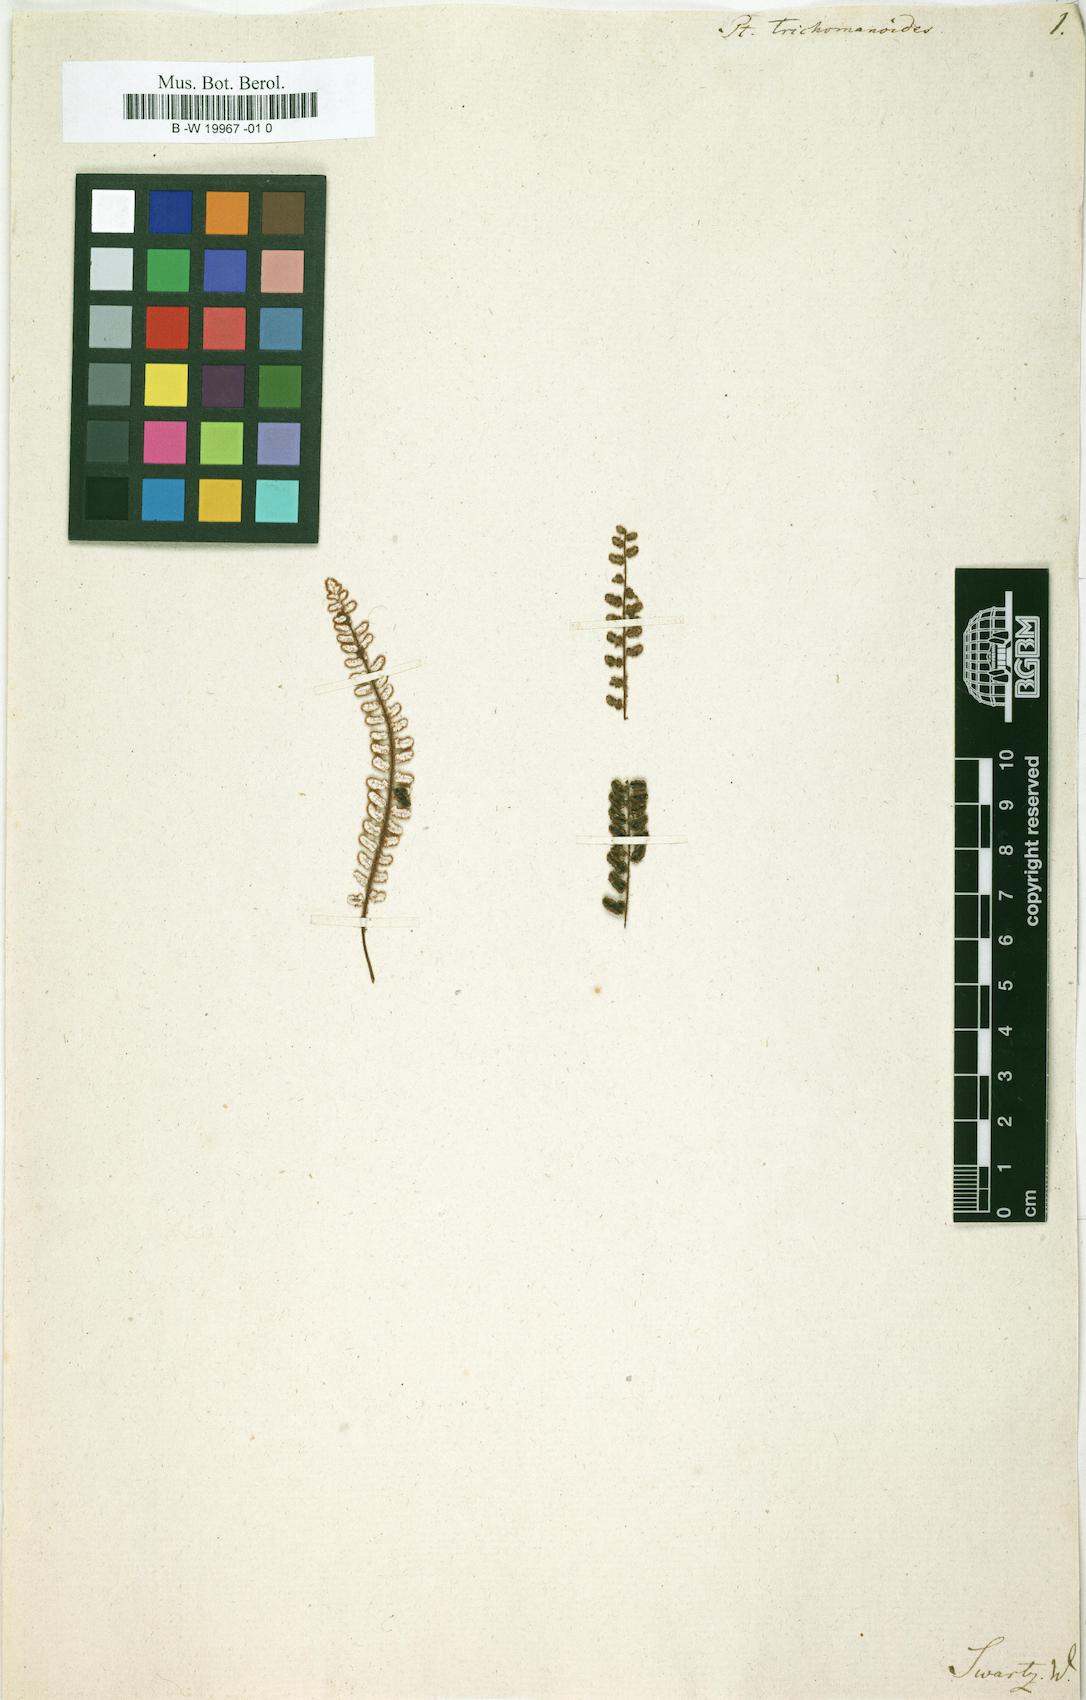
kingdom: Plantae
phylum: Tracheophyta
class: Polypodiopsida
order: Polypodiales
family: Pteridaceae
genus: Pteris
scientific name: Pteris trichomanoides
